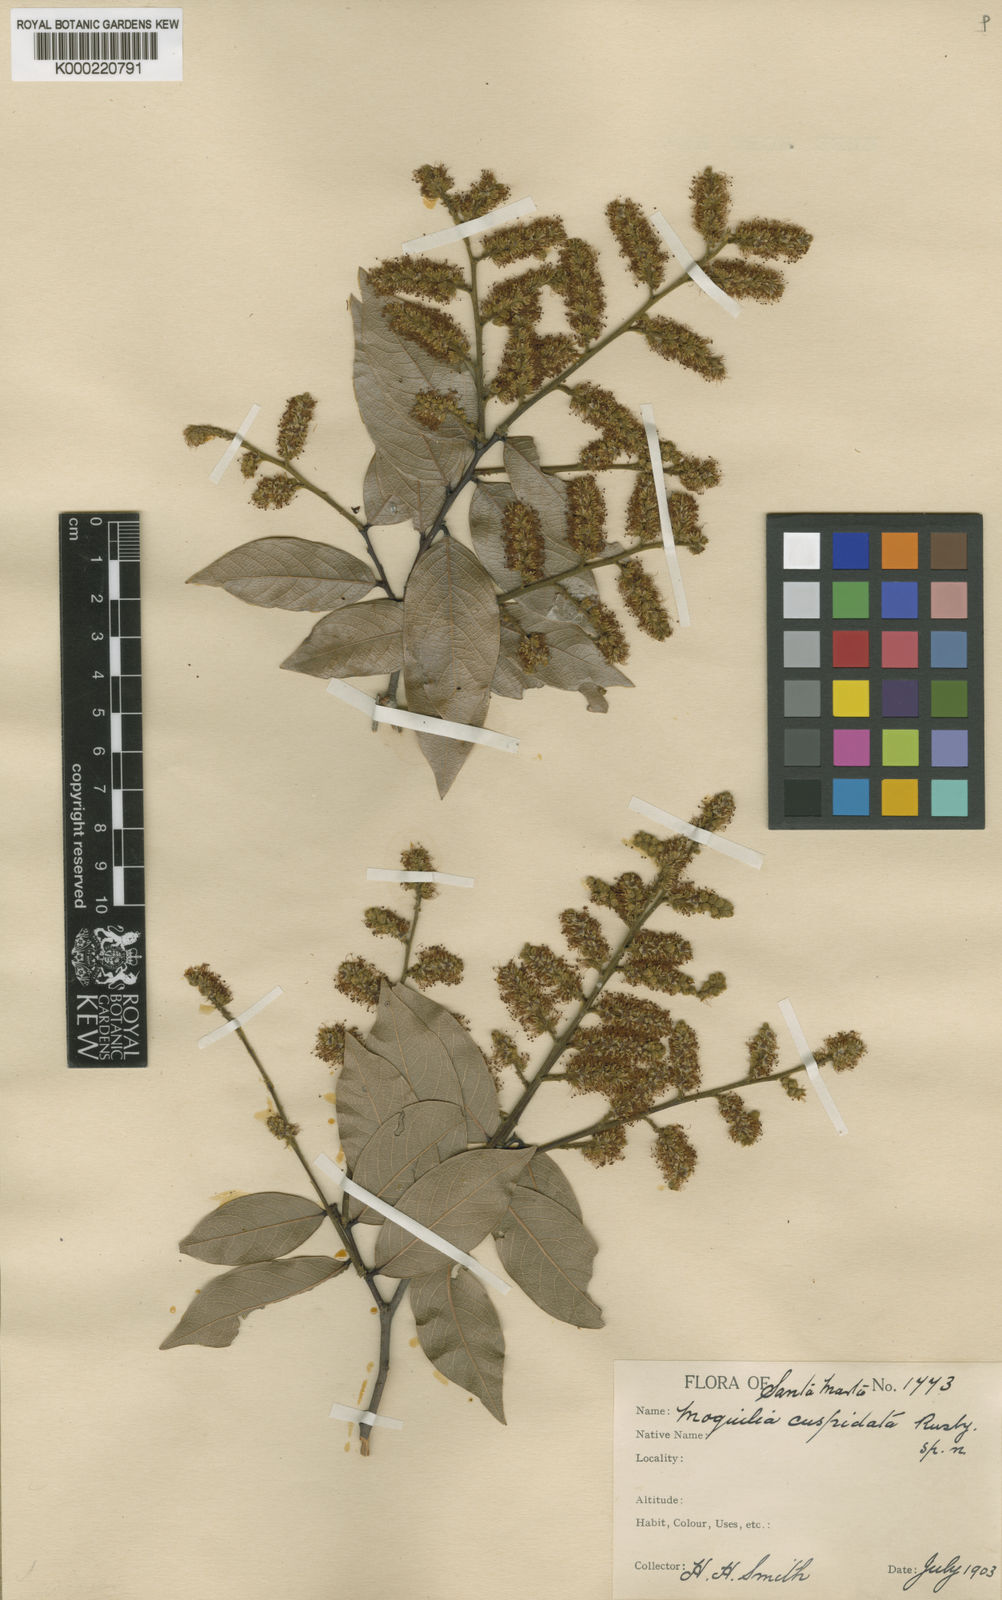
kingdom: Plantae
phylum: Tracheophyta
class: Magnoliopsida
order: Malpighiales
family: Chrysobalanaceae
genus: Leptobalanus
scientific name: Leptobalanus cuspidata
